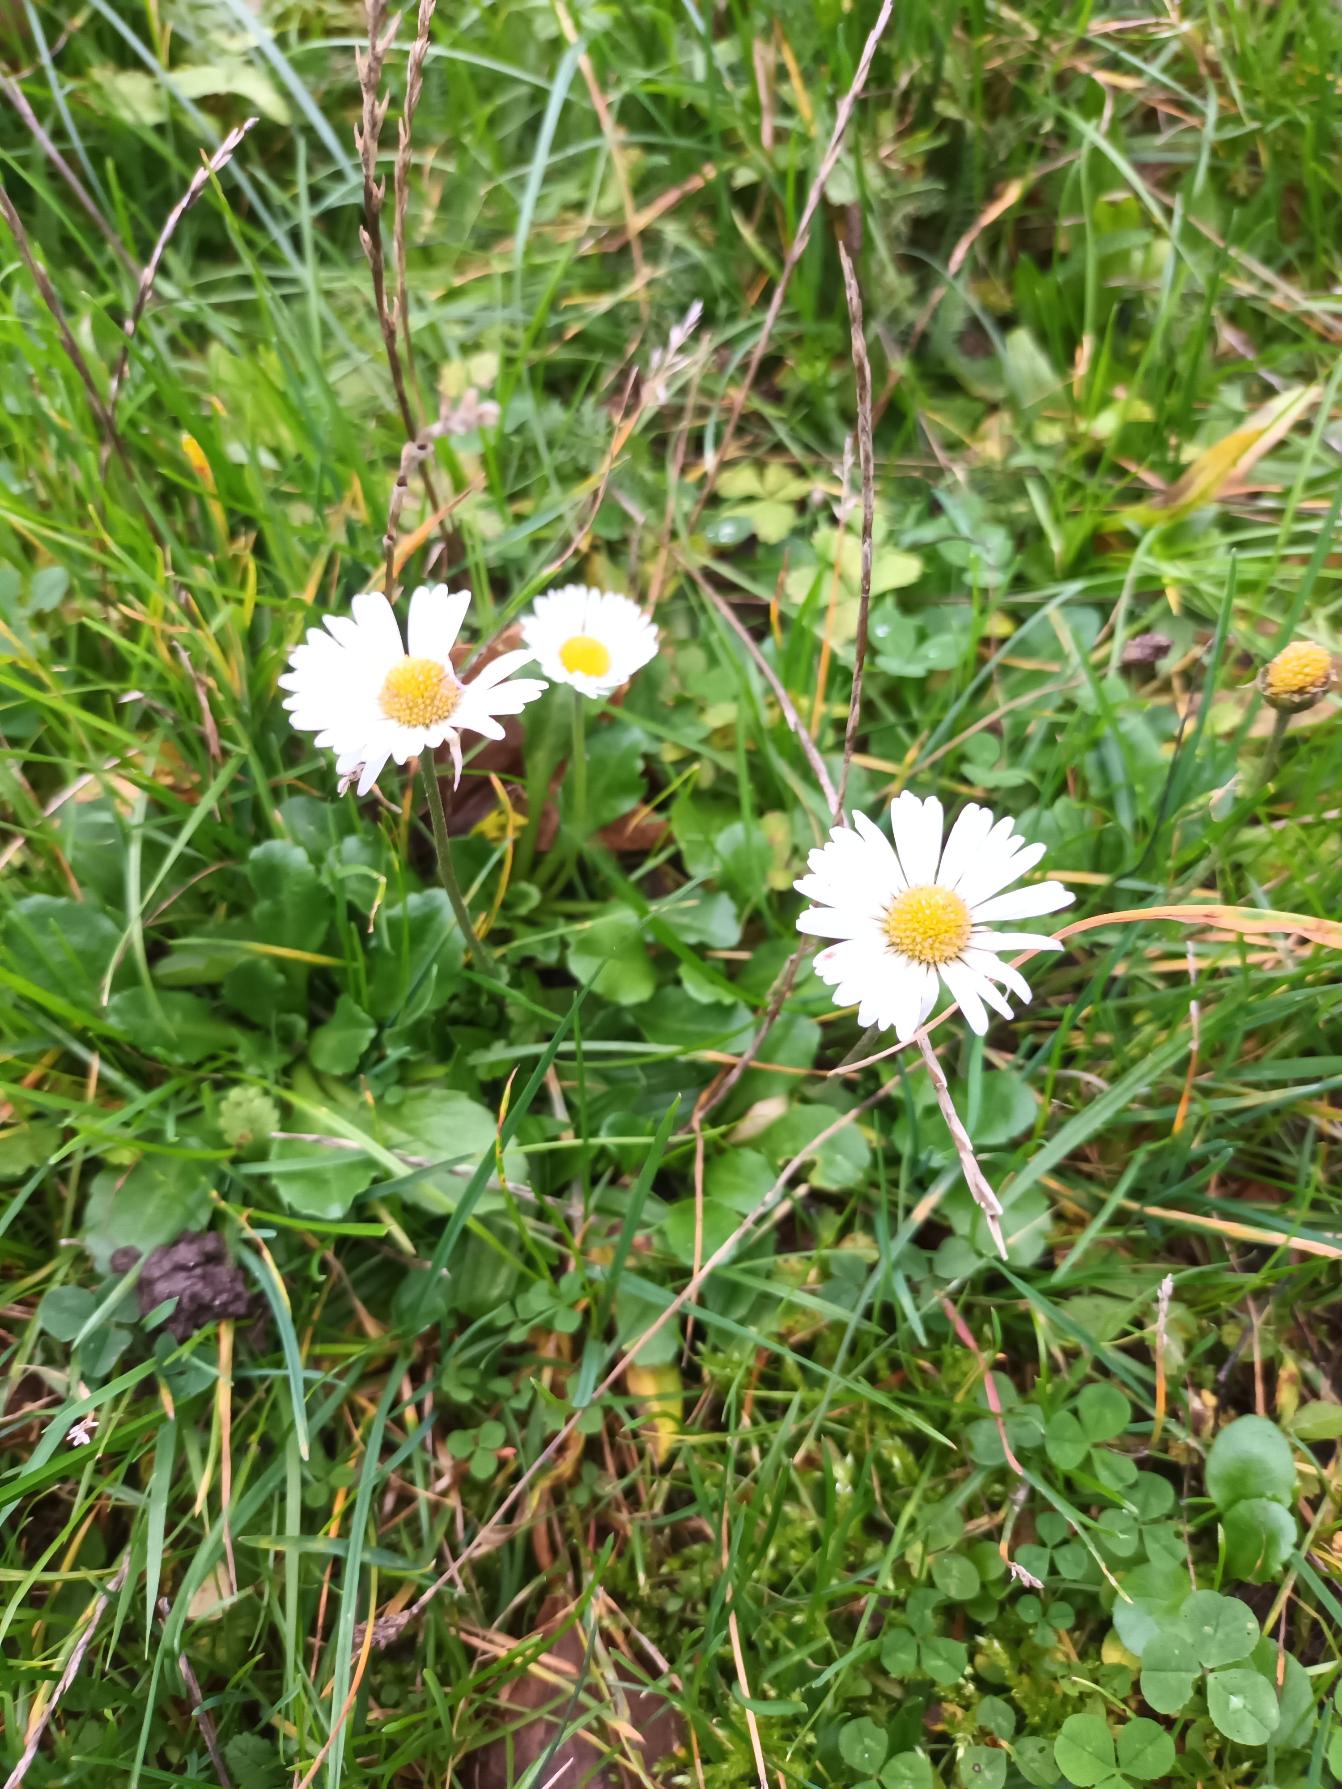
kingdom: Plantae
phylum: Tracheophyta
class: Magnoliopsida
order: Asterales
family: Asteraceae
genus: Bellis
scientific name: Bellis perennis
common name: Tusindfryd
